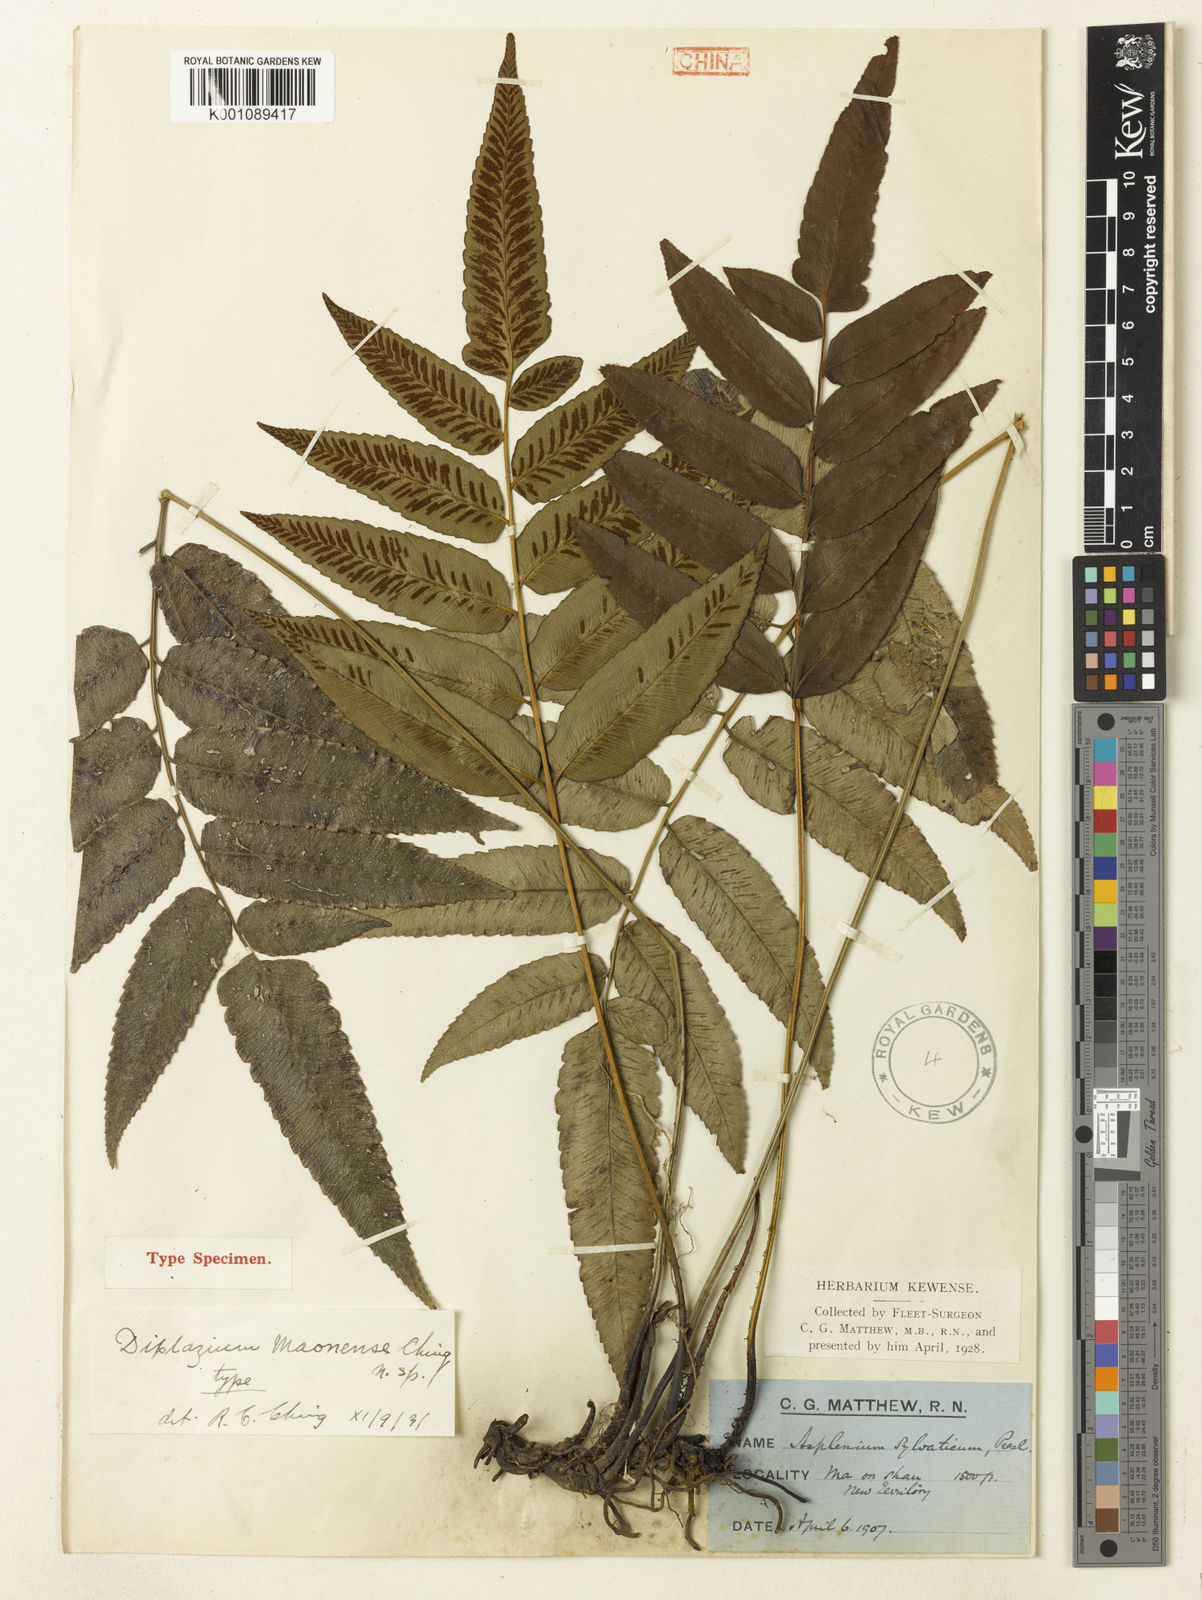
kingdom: Plantae
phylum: Tracheophyta
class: Polypodiopsida
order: Polypodiales
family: Athyriaceae
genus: Diplazium
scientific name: Diplazium maonense
